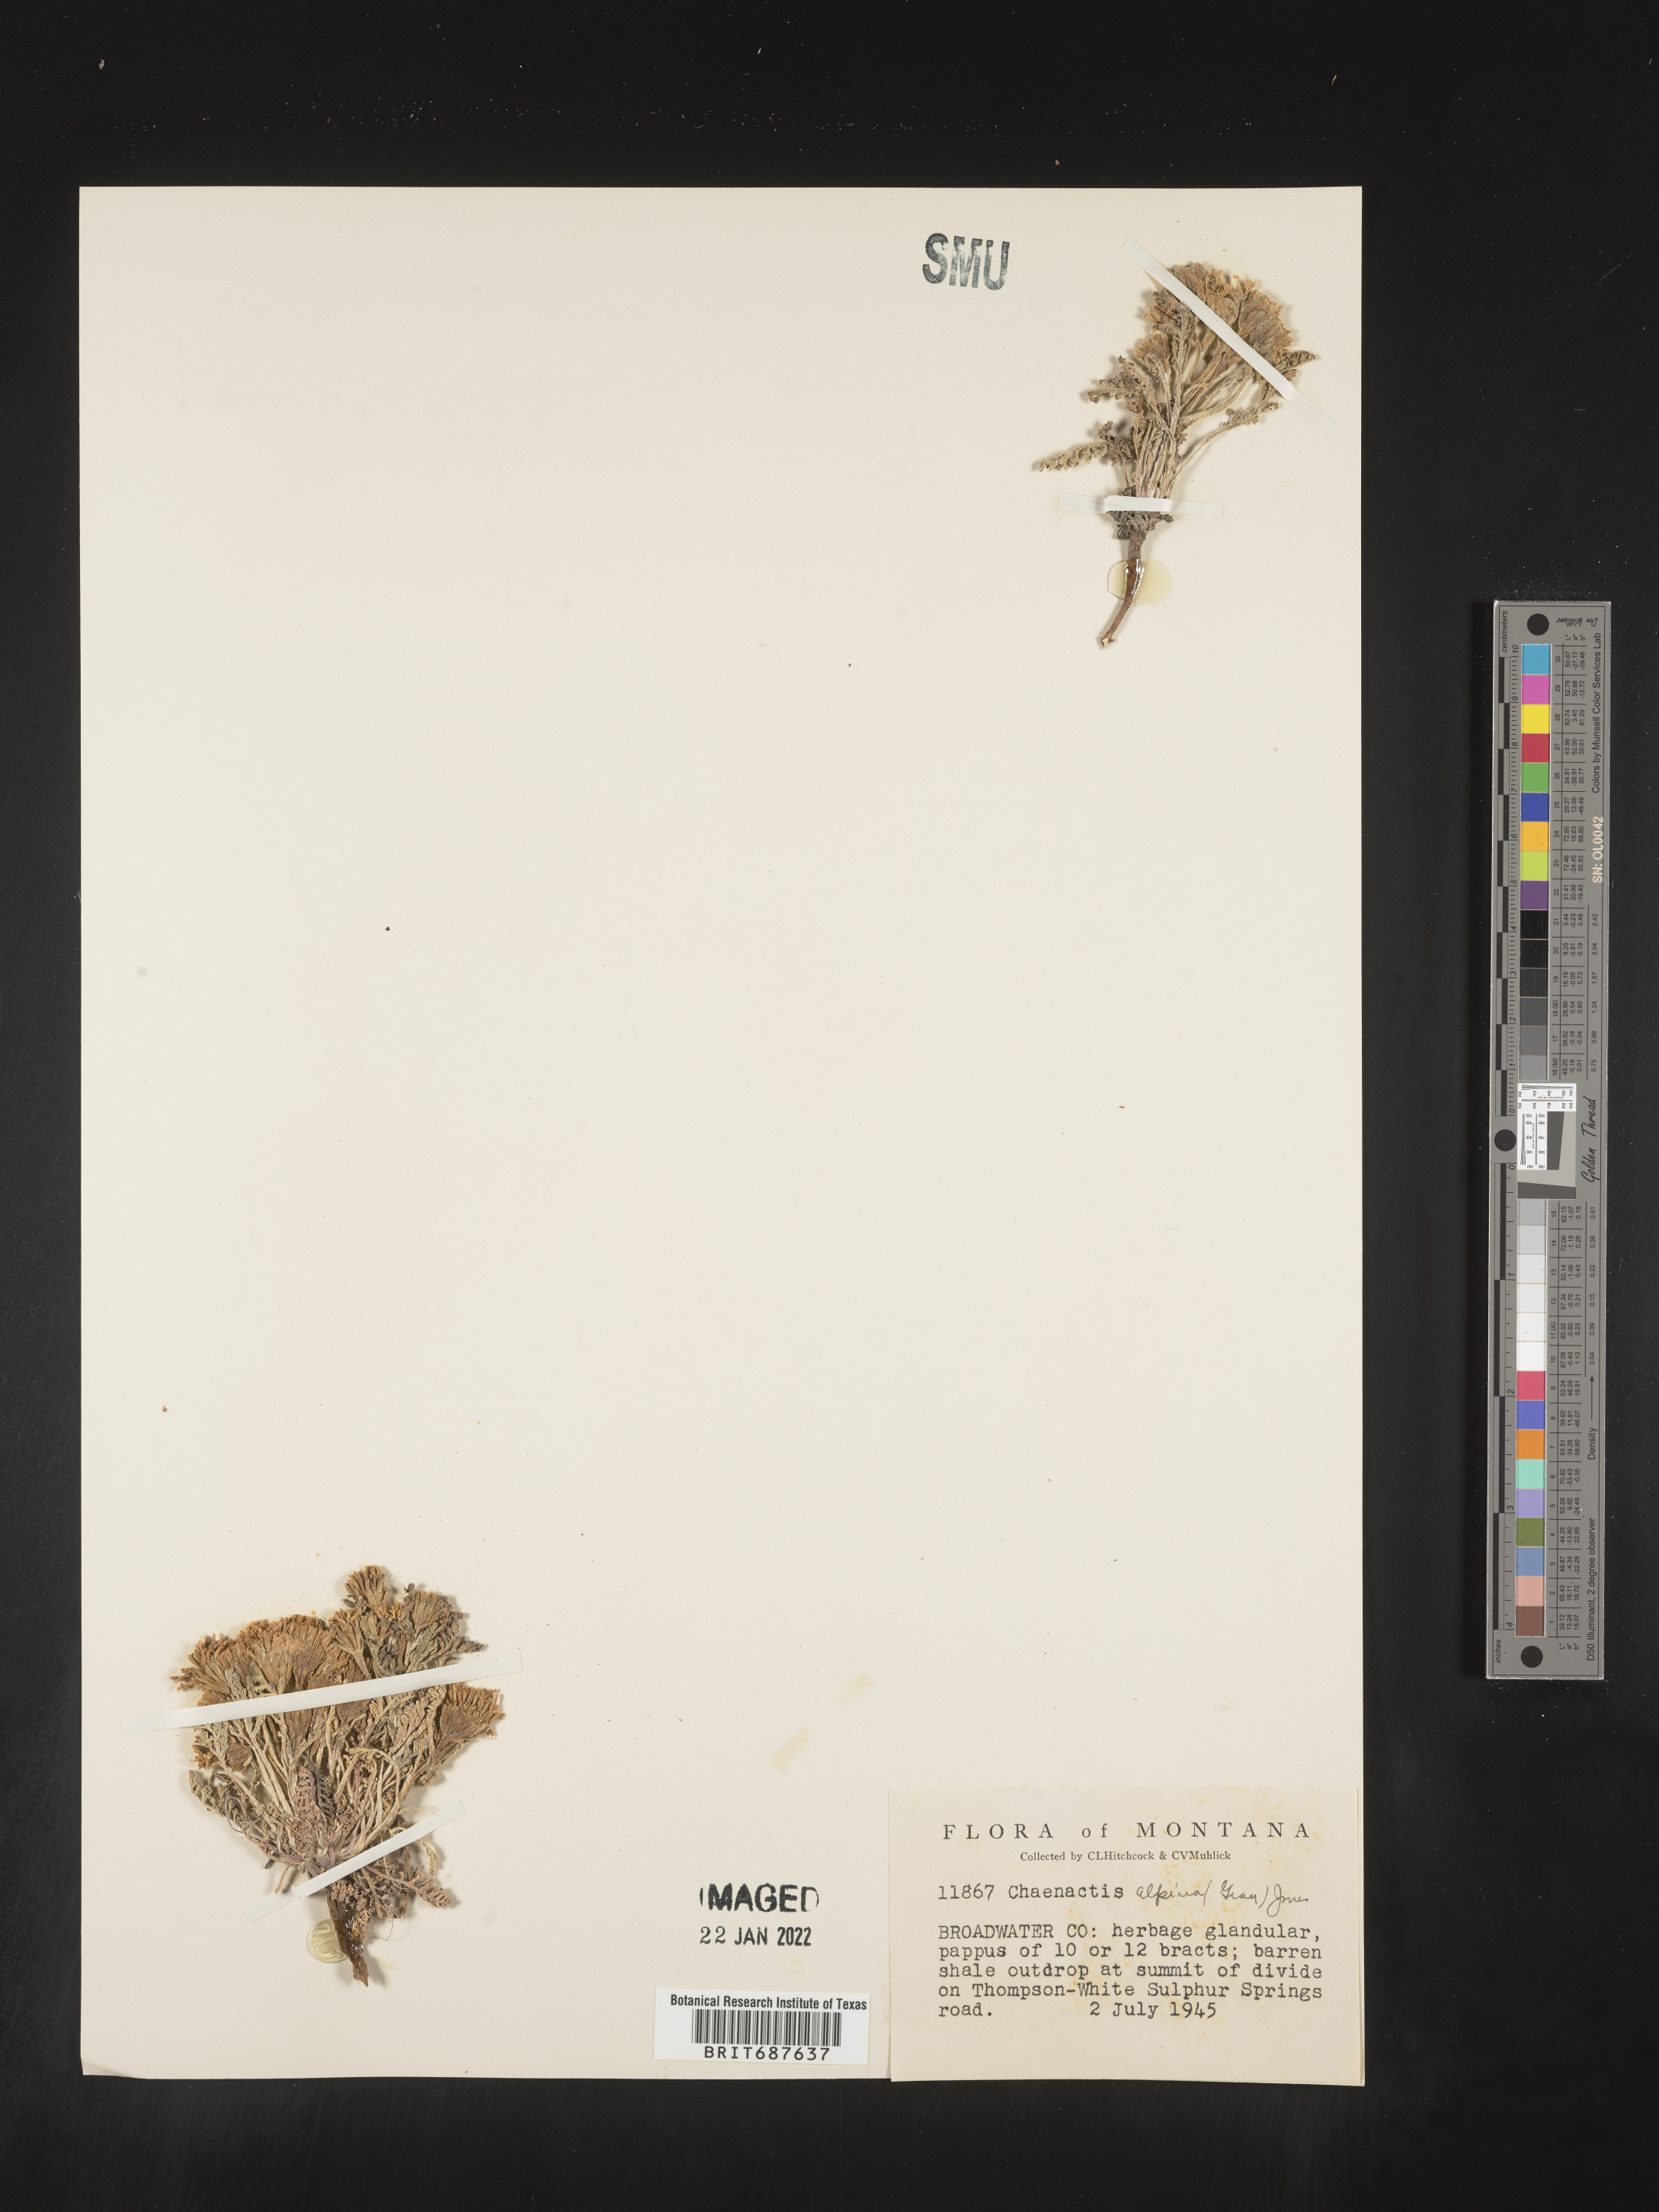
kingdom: Plantae
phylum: Tracheophyta
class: Magnoliopsida
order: Asterales
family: Asteraceae
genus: Chaenactis
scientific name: Chaenactis
